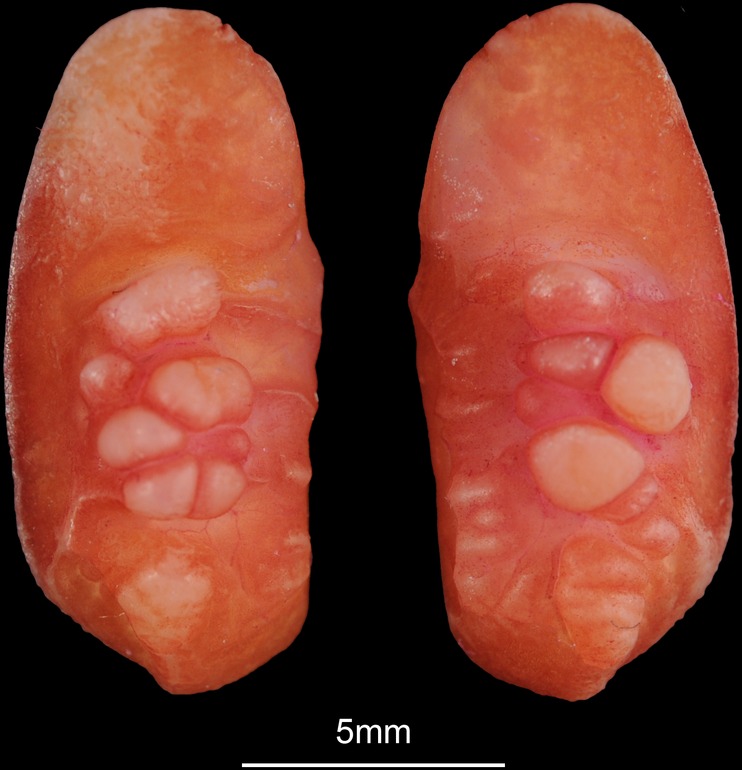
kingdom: Animalia
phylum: Chordata
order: Perciformes
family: Sciaenidae
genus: Atractoscion
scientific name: Atractoscion aequidens
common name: Geelbeck croaker
